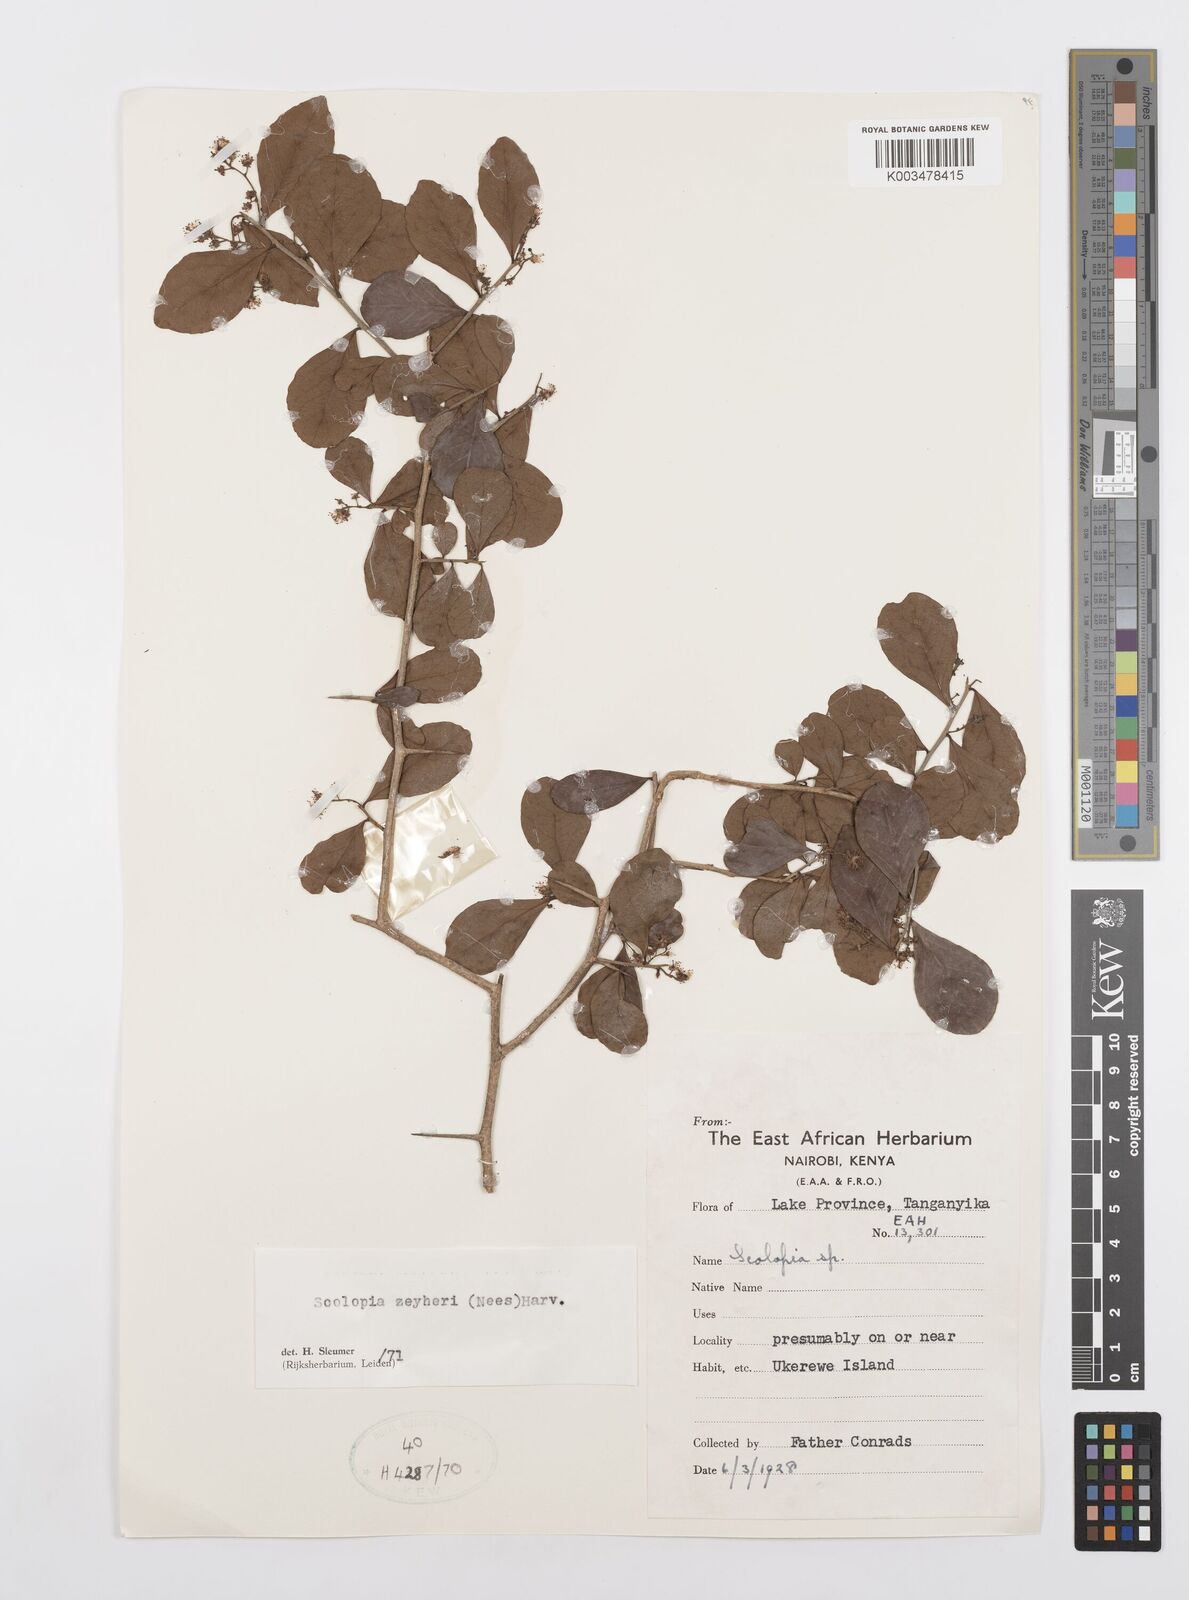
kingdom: Plantae
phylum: Tracheophyta
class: Magnoliopsida
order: Malpighiales
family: Salicaceae
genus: Scolopia
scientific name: Scolopia zeyheri
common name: Thorn pear
